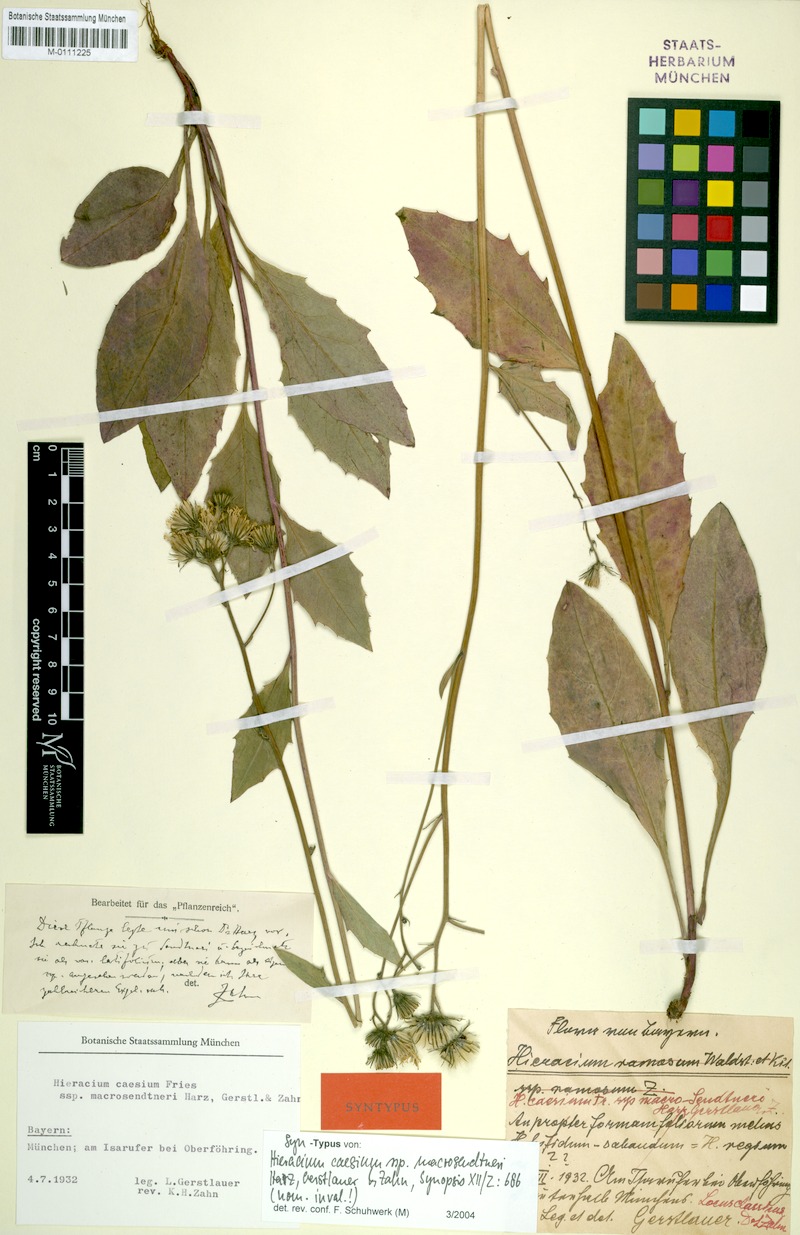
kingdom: Plantae
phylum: Tracheophyta
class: Magnoliopsida
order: Asterales
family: Asteraceae
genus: Hieracium
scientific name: Hieracium caesium
